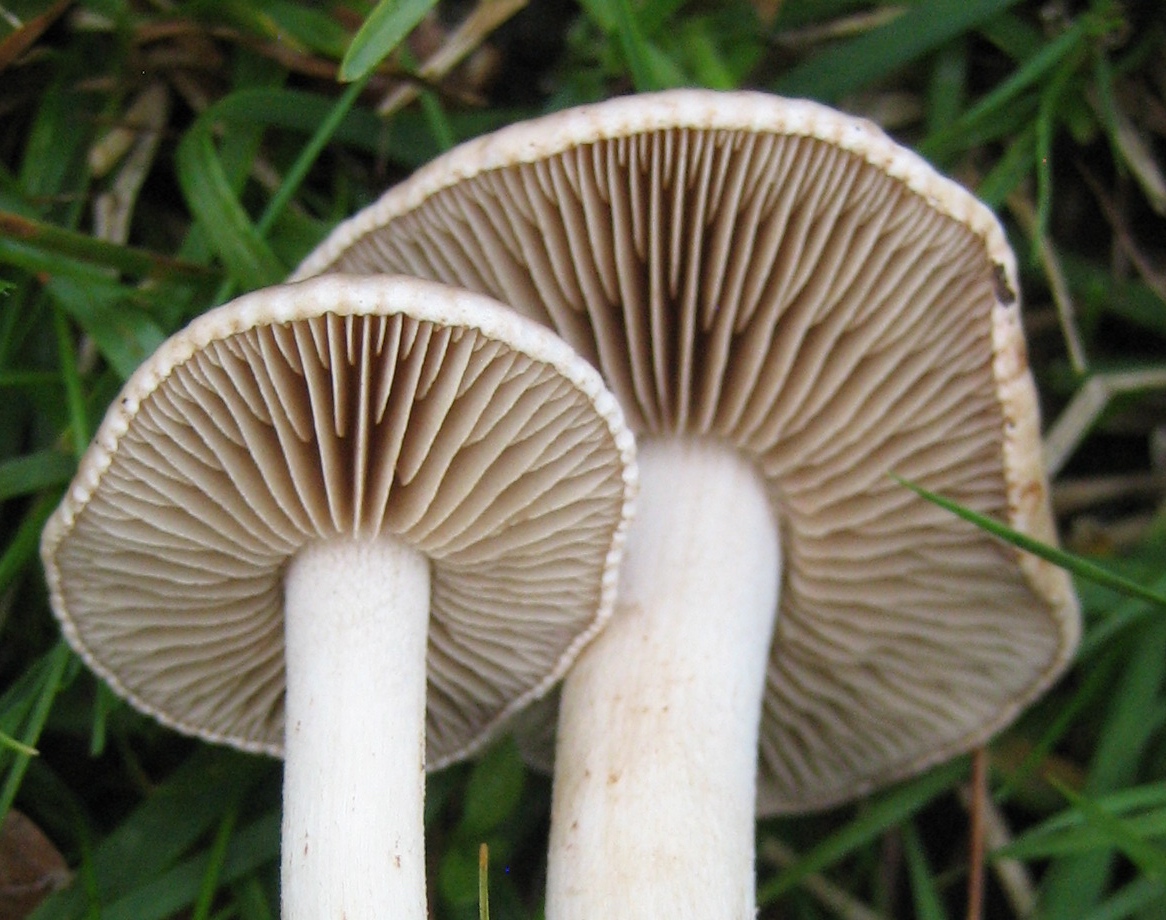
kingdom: Fungi
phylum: Basidiomycota
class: Agaricomycetes
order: Agaricales
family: Hymenogastraceae
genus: Hebeloma
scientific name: Hebeloma
